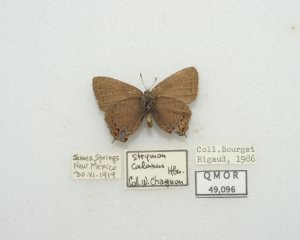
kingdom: Animalia
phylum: Arthropoda
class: Insecta
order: Lepidoptera
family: Lycaenidae
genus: Satyrium
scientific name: Satyrium calanus
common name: Banded Hairstreak
